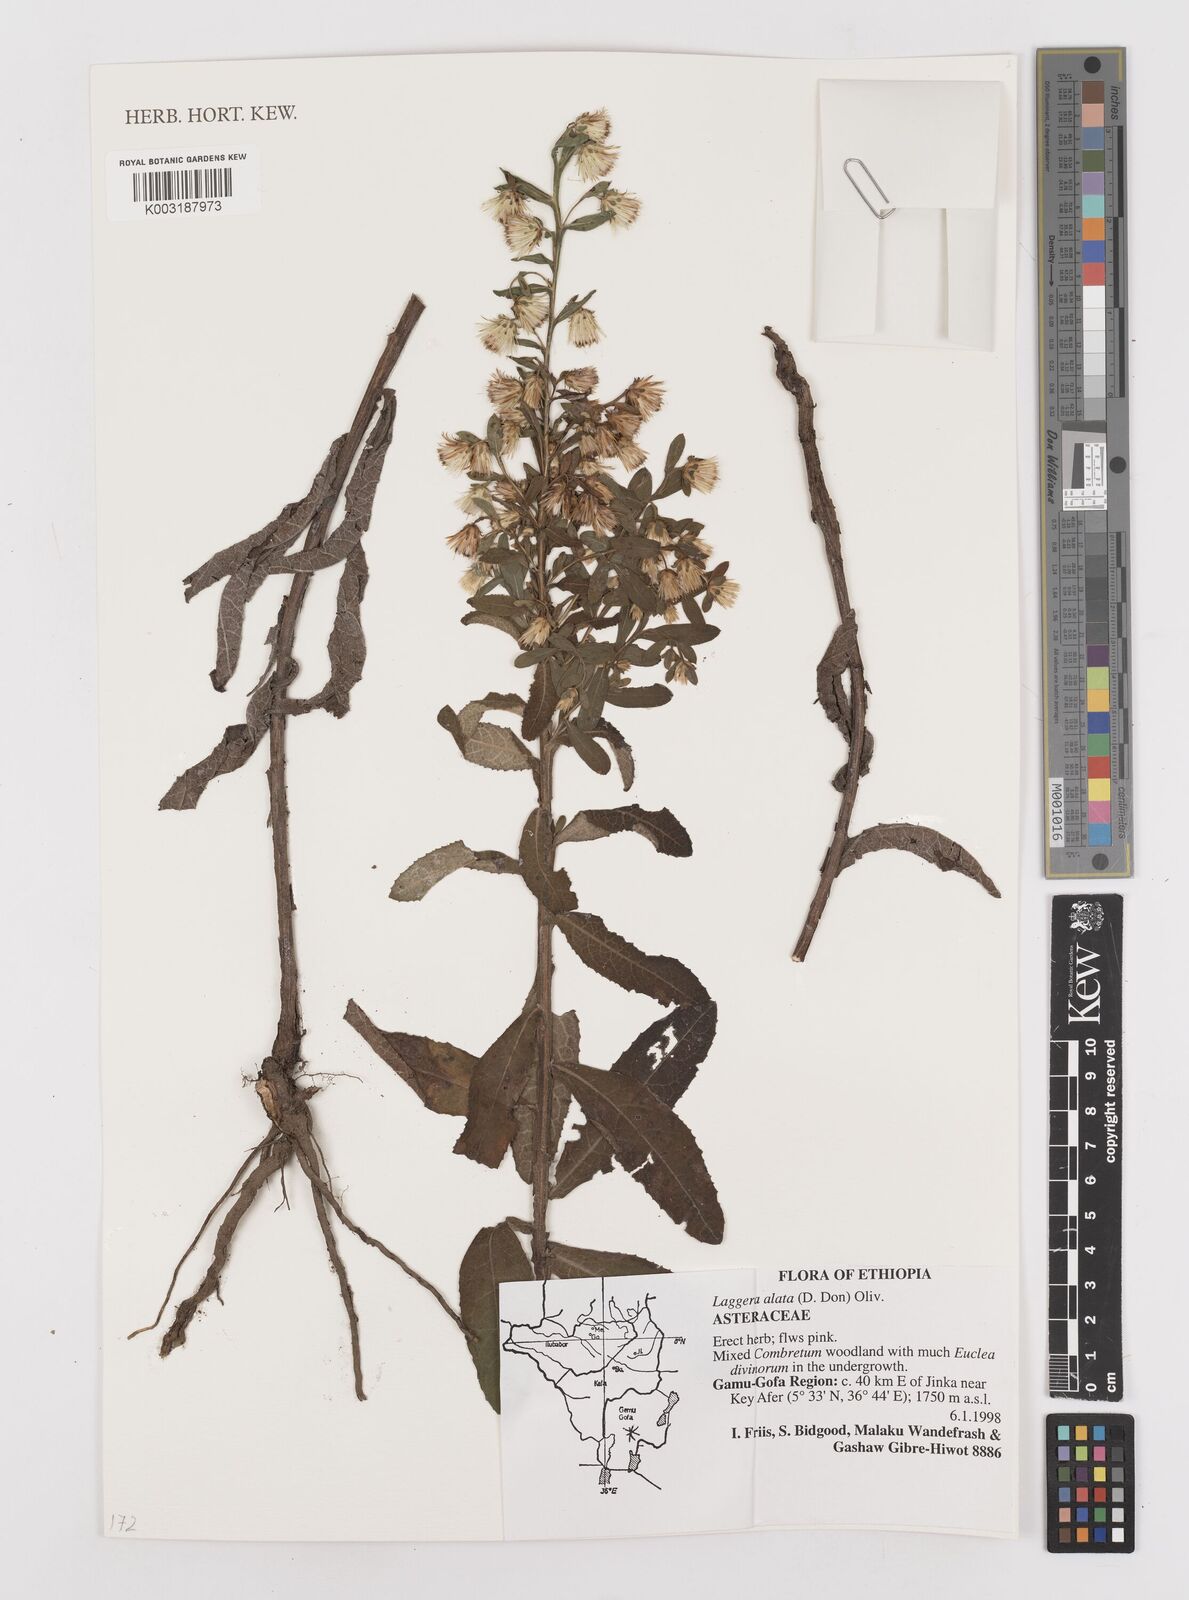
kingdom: Plantae
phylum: Tracheophyta
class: Magnoliopsida
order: Asterales
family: Asteraceae
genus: Laggera
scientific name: Laggera crispata
